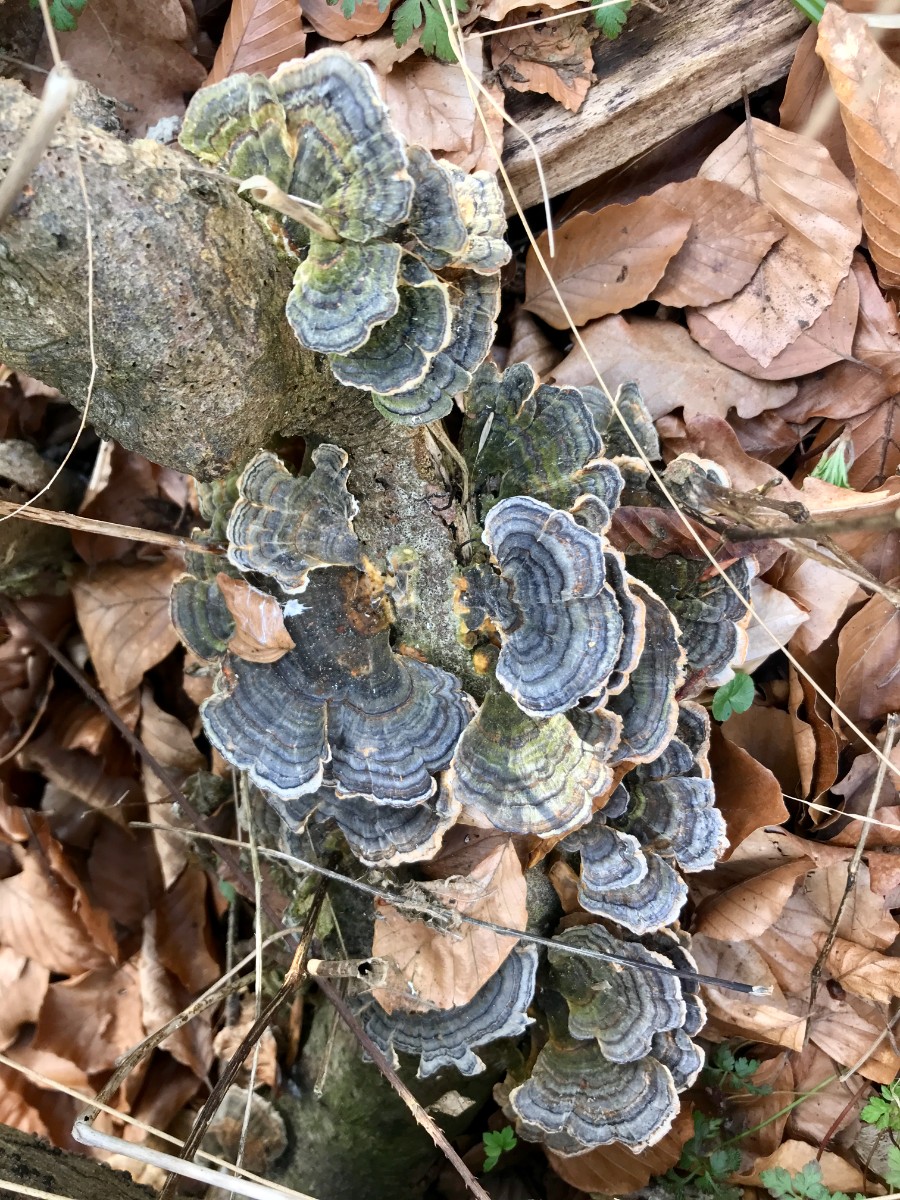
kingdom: Fungi
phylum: Basidiomycota
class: Agaricomycetes
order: Polyporales
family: Polyporaceae
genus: Trametes
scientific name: Trametes versicolor
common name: broget læderporesvamp
